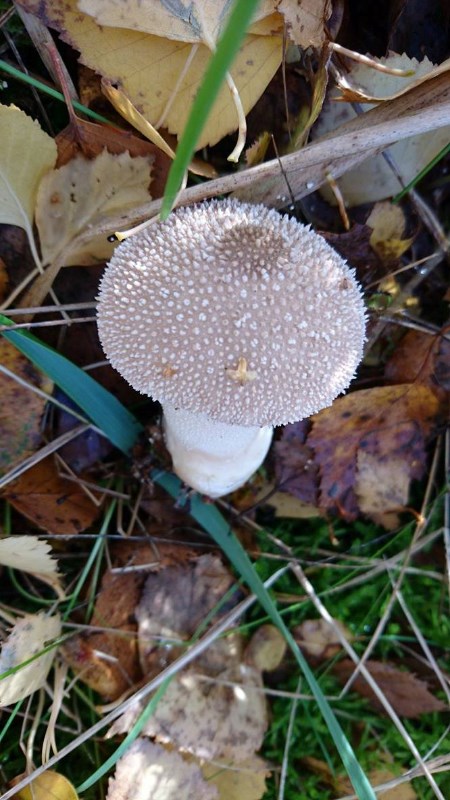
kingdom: Fungi
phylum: Basidiomycota
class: Agaricomycetes
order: Agaricales
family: Agaricaceae
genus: Lycoperdon
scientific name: Lycoperdon
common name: støvbold
